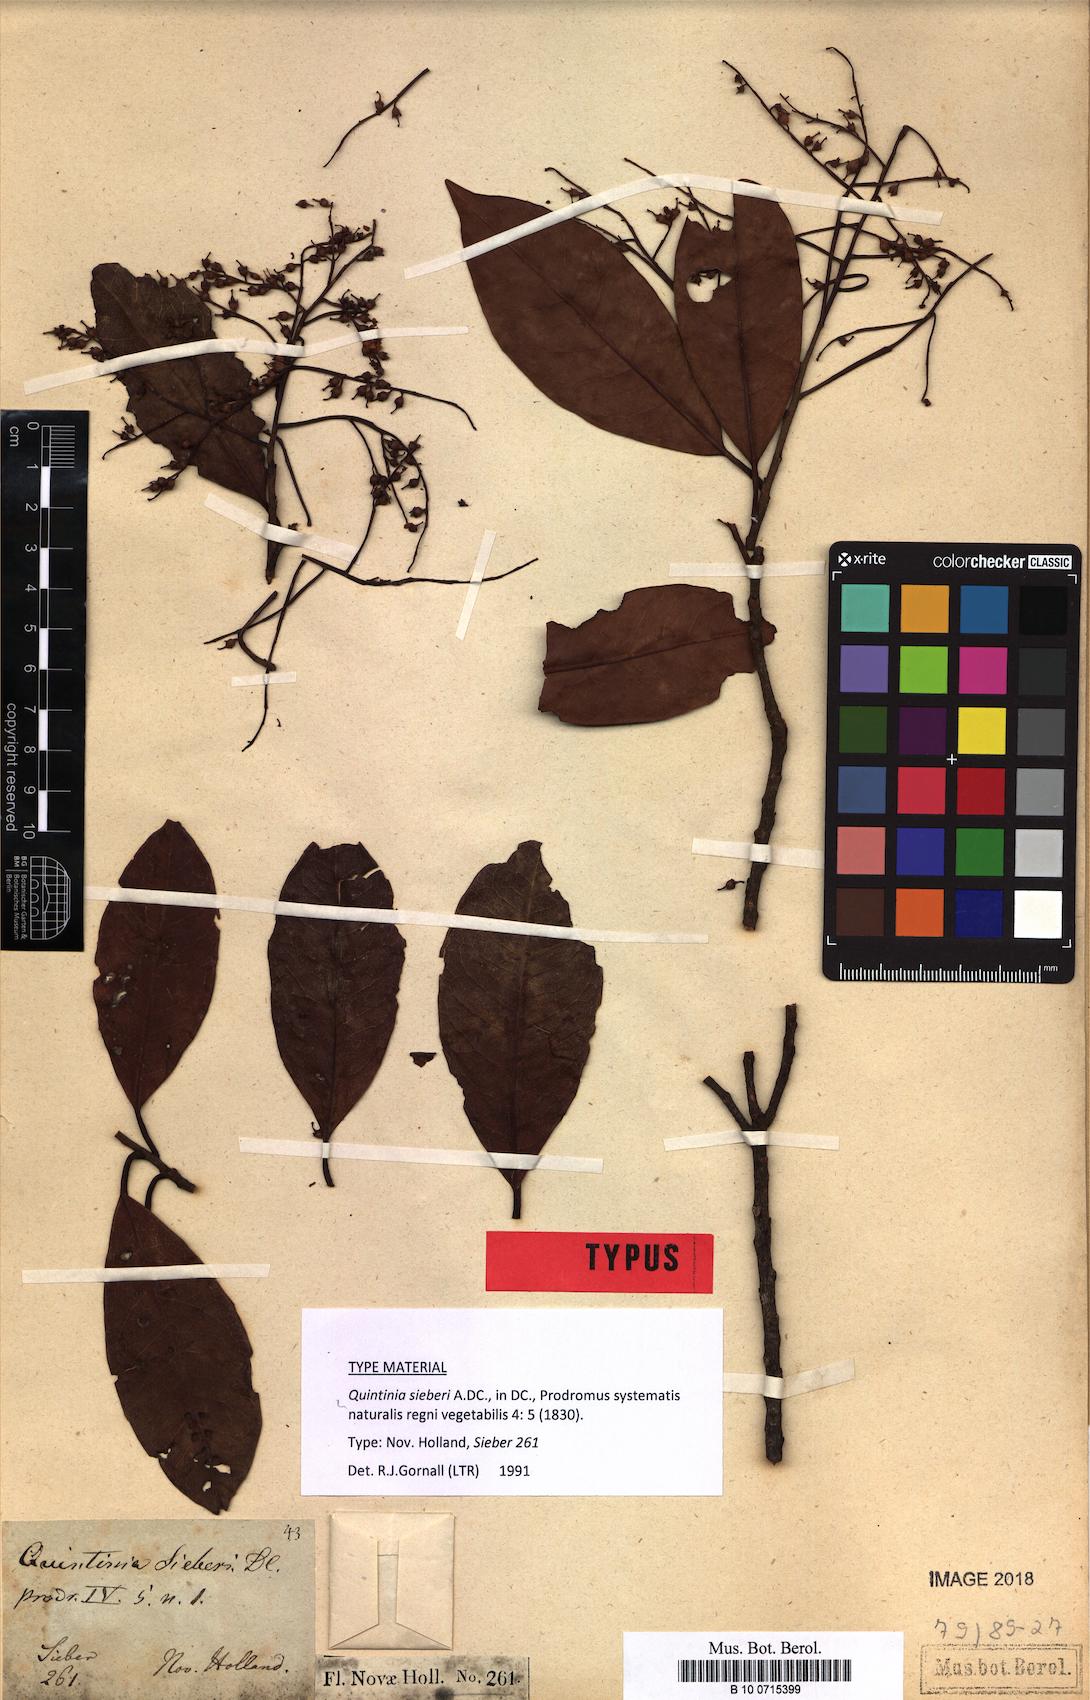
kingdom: Plantae
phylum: Tracheophyta
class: Magnoliopsida
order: Paracryphiales
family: Paracryphiaceae
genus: Quintinia
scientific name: Quintinia sieberi
